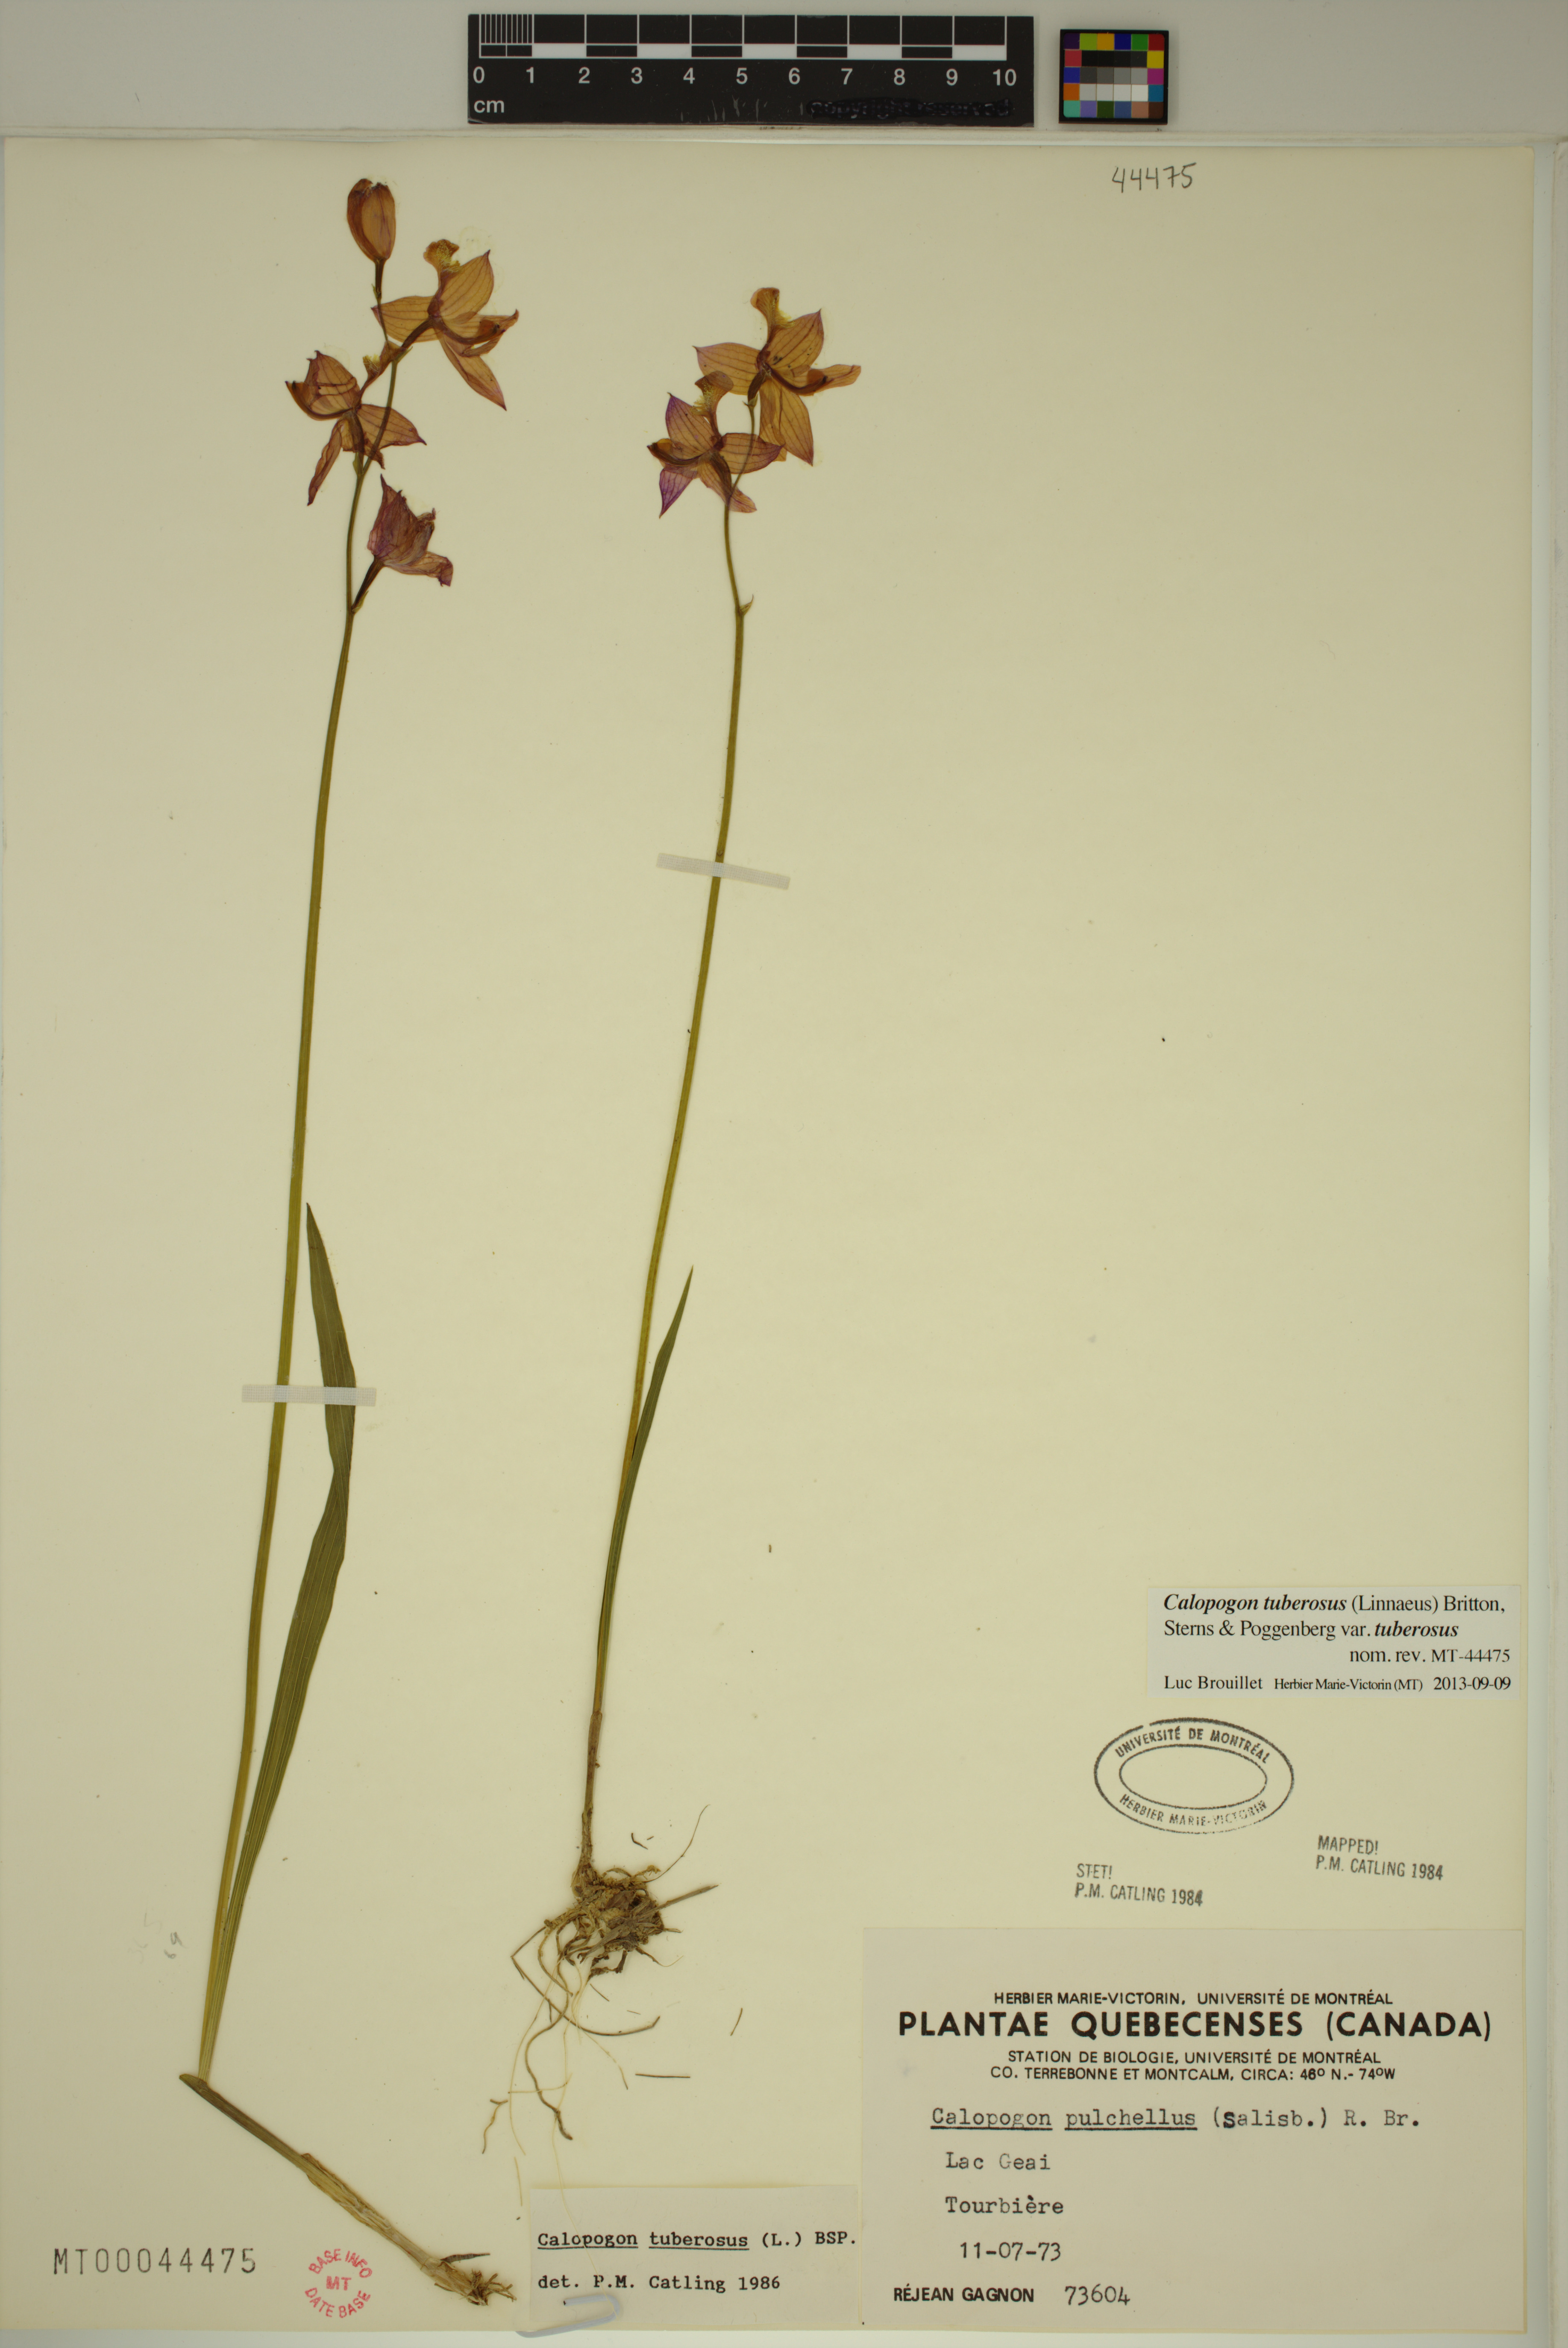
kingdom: Plantae
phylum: Tracheophyta
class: Liliopsida
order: Asparagales
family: Orchidaceae
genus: Calopogon
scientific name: Calopogon tuberosus
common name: Grass-pink
